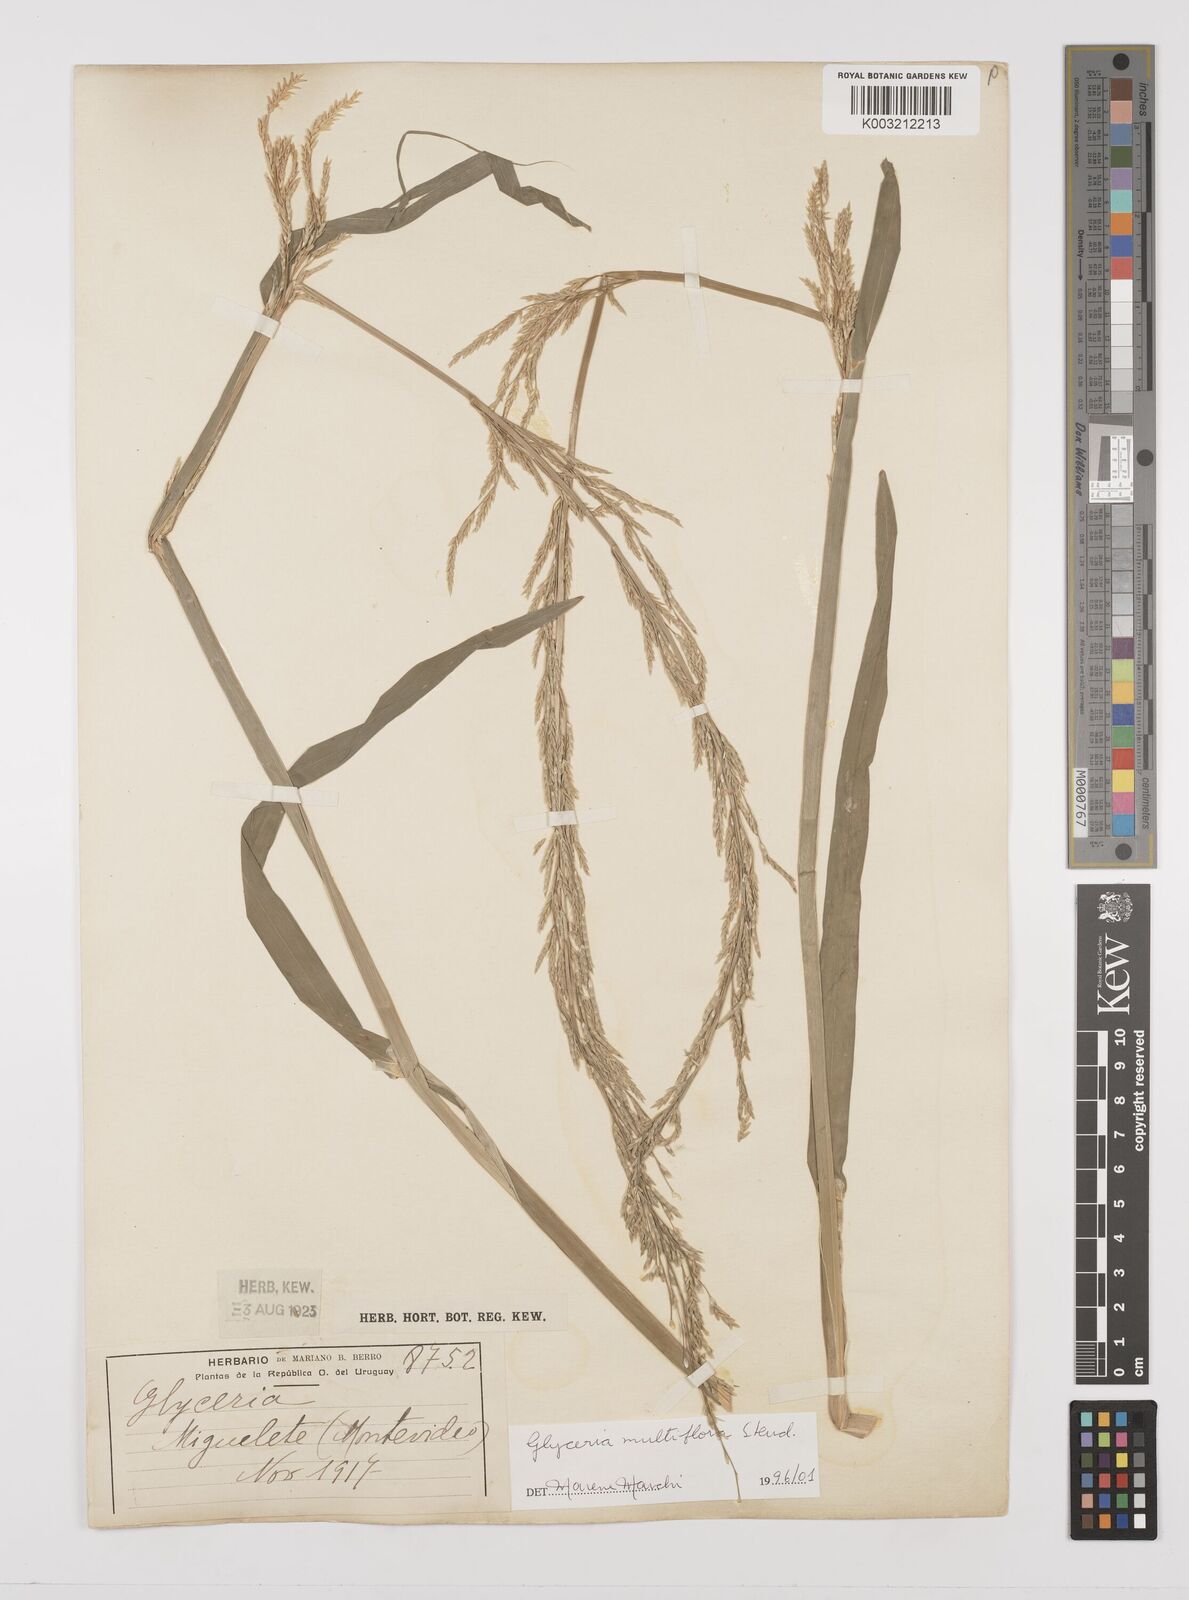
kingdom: Plantae
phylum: Tracheophyta
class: Liliopsida
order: Poales
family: Poaceae
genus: Glyceria
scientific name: Glyceria multiflora
